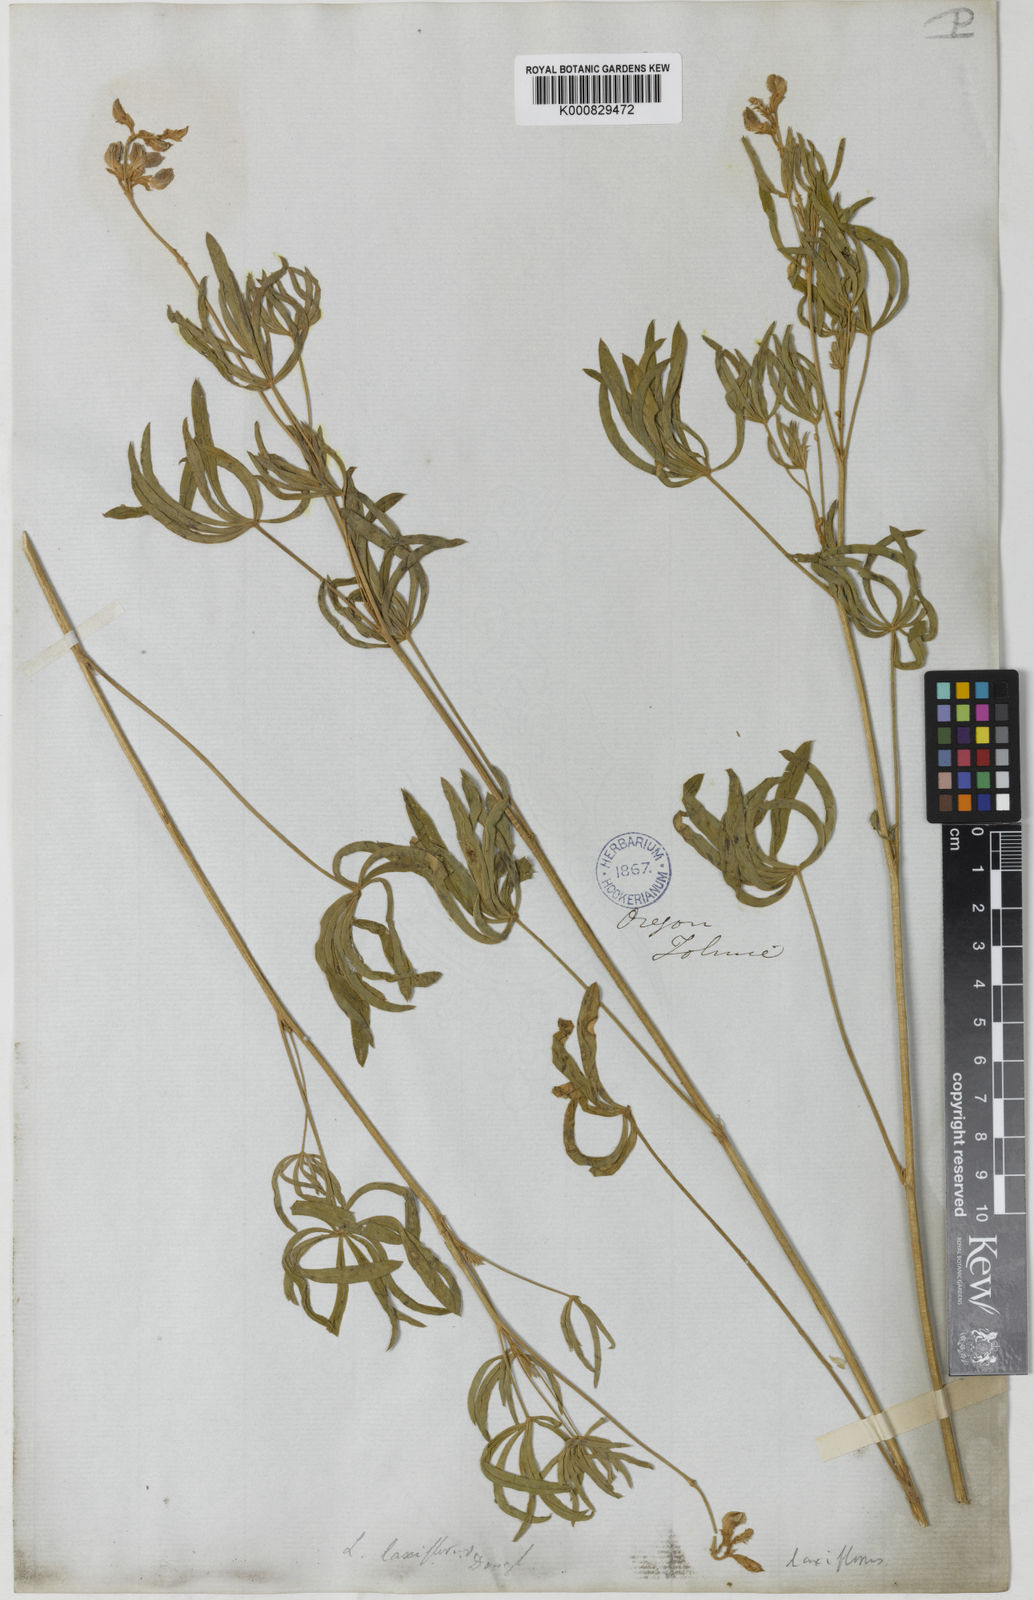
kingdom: Plantae
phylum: Tracheophyta
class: Magnoliopsida
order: Fabales
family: Fabaceae
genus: Lupinus
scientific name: Lupinus argenteus
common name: Silvery lupine
